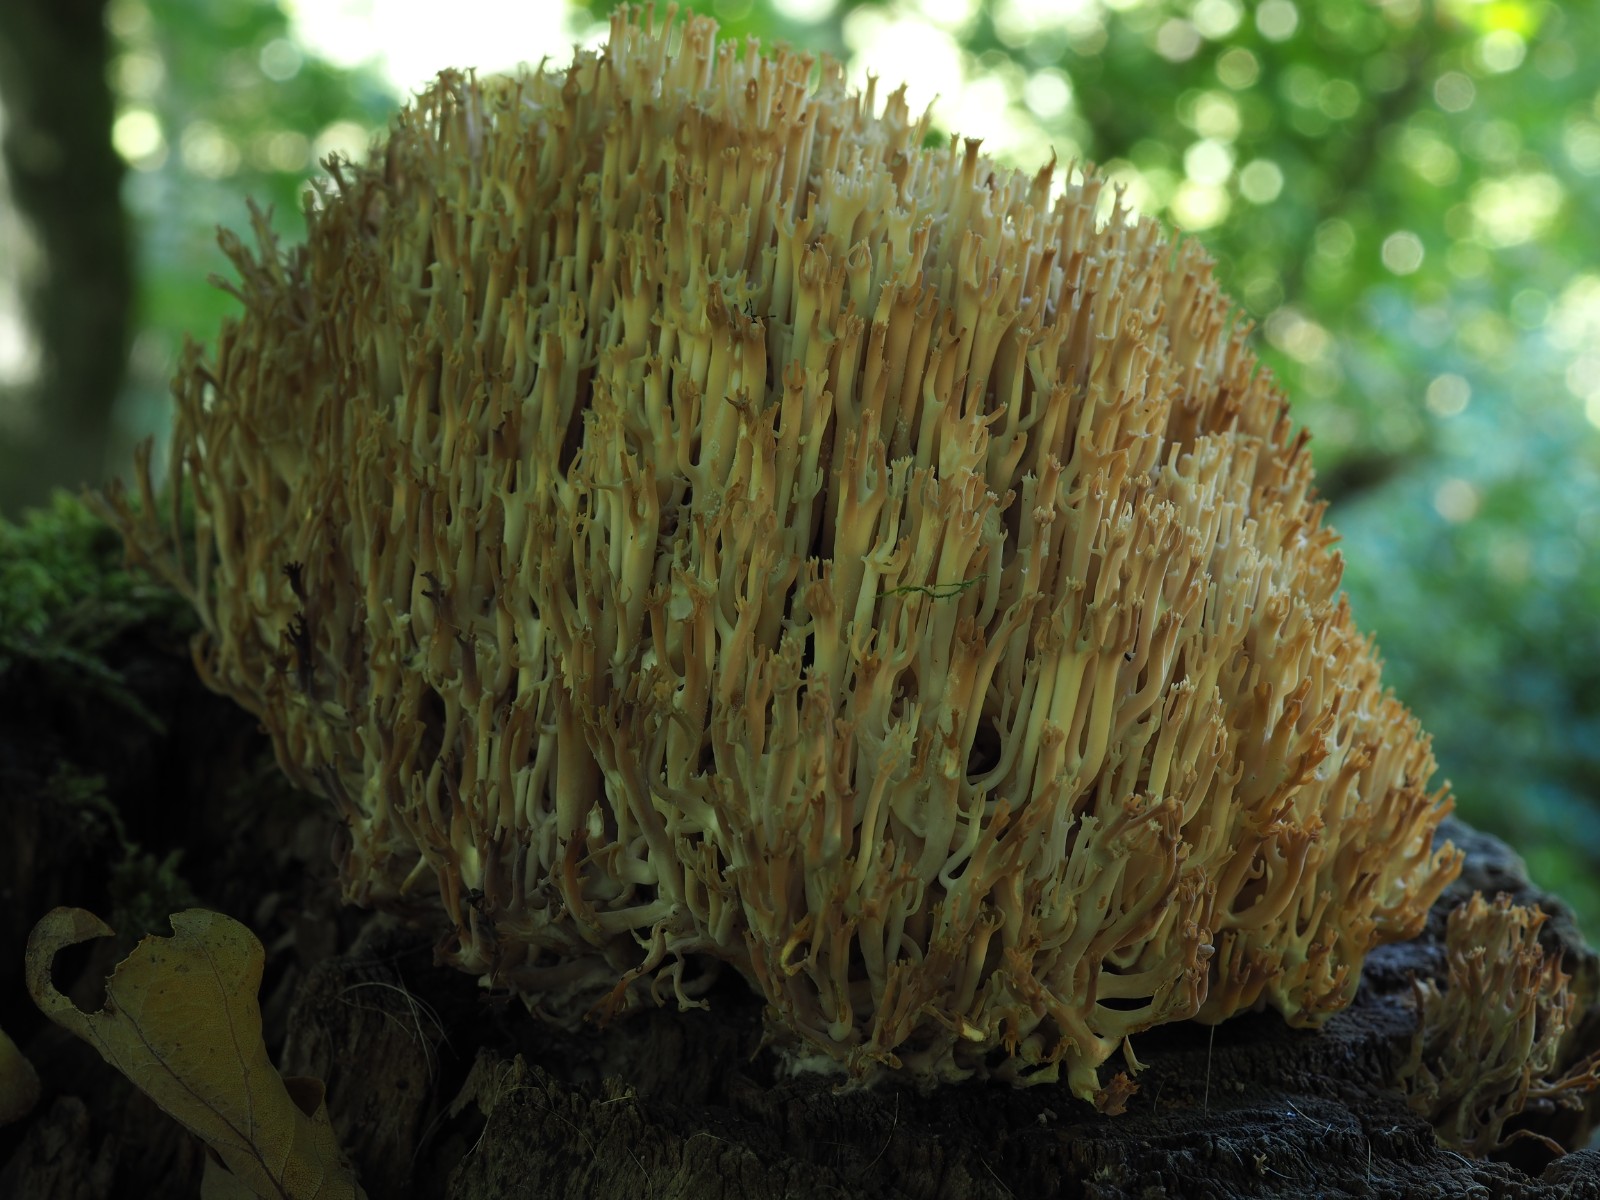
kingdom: Fungi
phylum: Basidiomycota
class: Agaricomycetes
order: Russulales
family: Auriscalpiaceae
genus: Artomyces
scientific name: Artomyces pyxidatus
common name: kandelabersvamp
